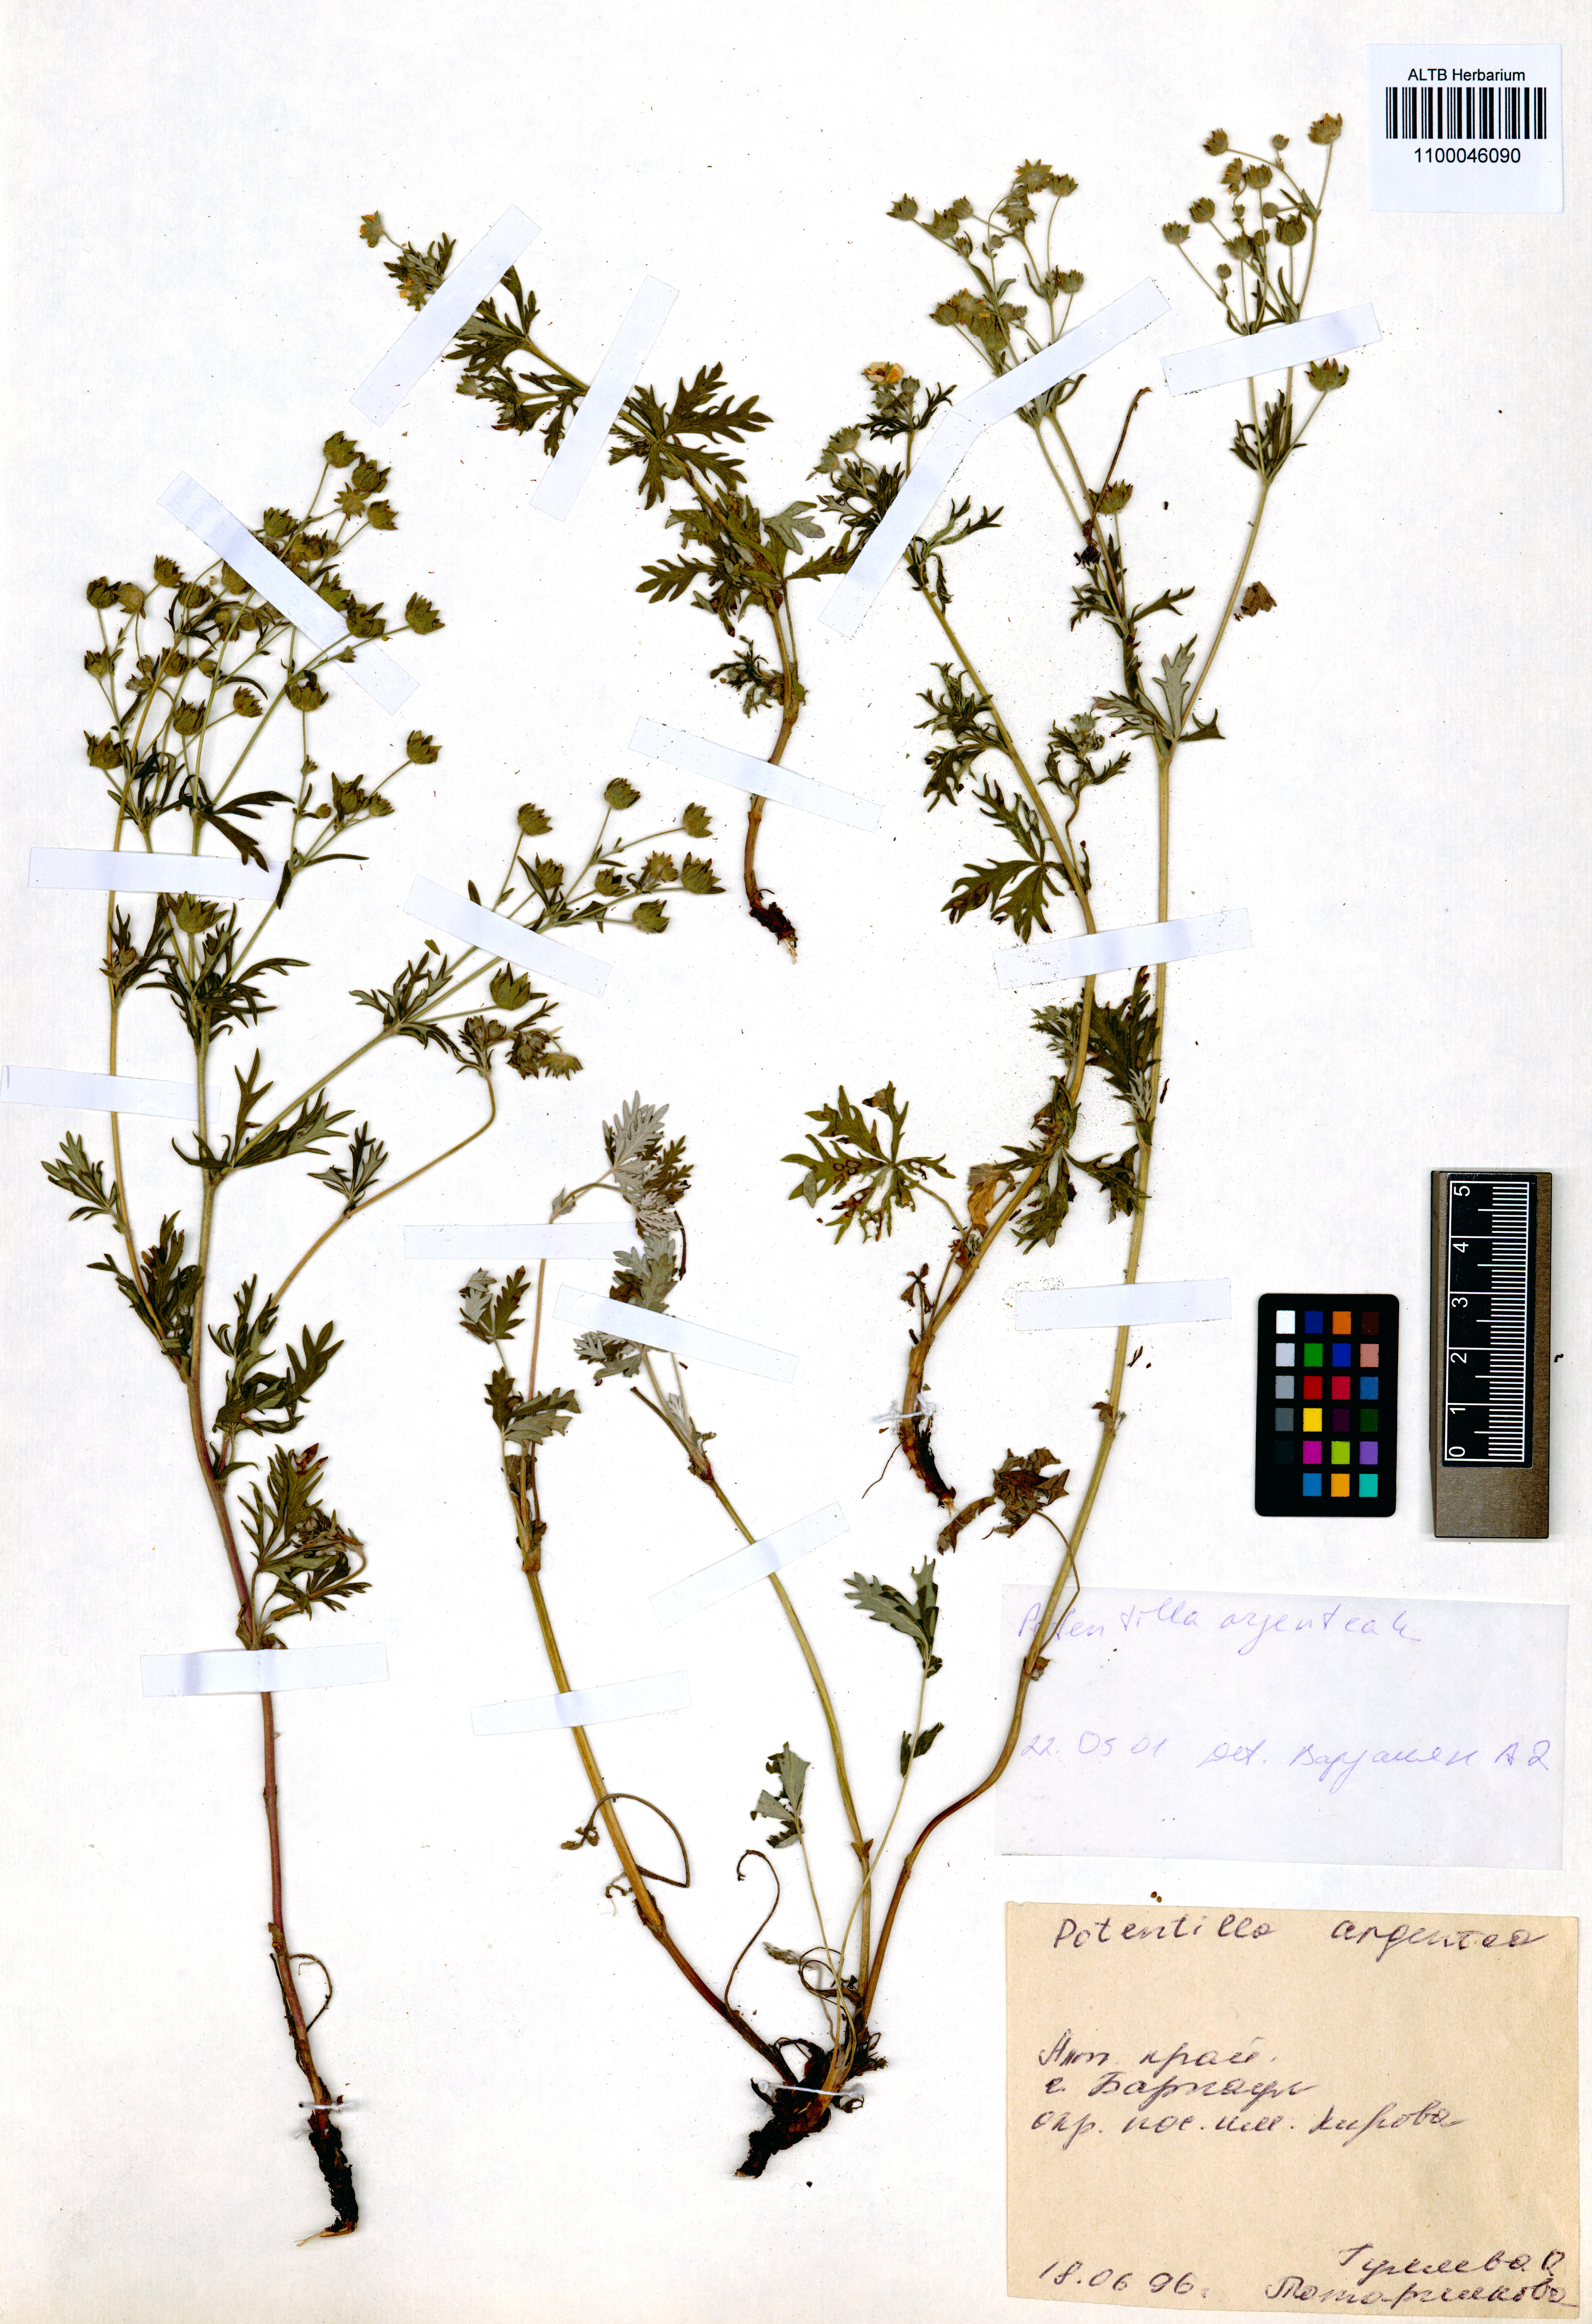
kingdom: Plantae
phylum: Tracheophyta
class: Magnoliopsida
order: Rosales
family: Rosaceae
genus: Potentilla
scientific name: Potentilla argentea
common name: Hoary cinquefoil
